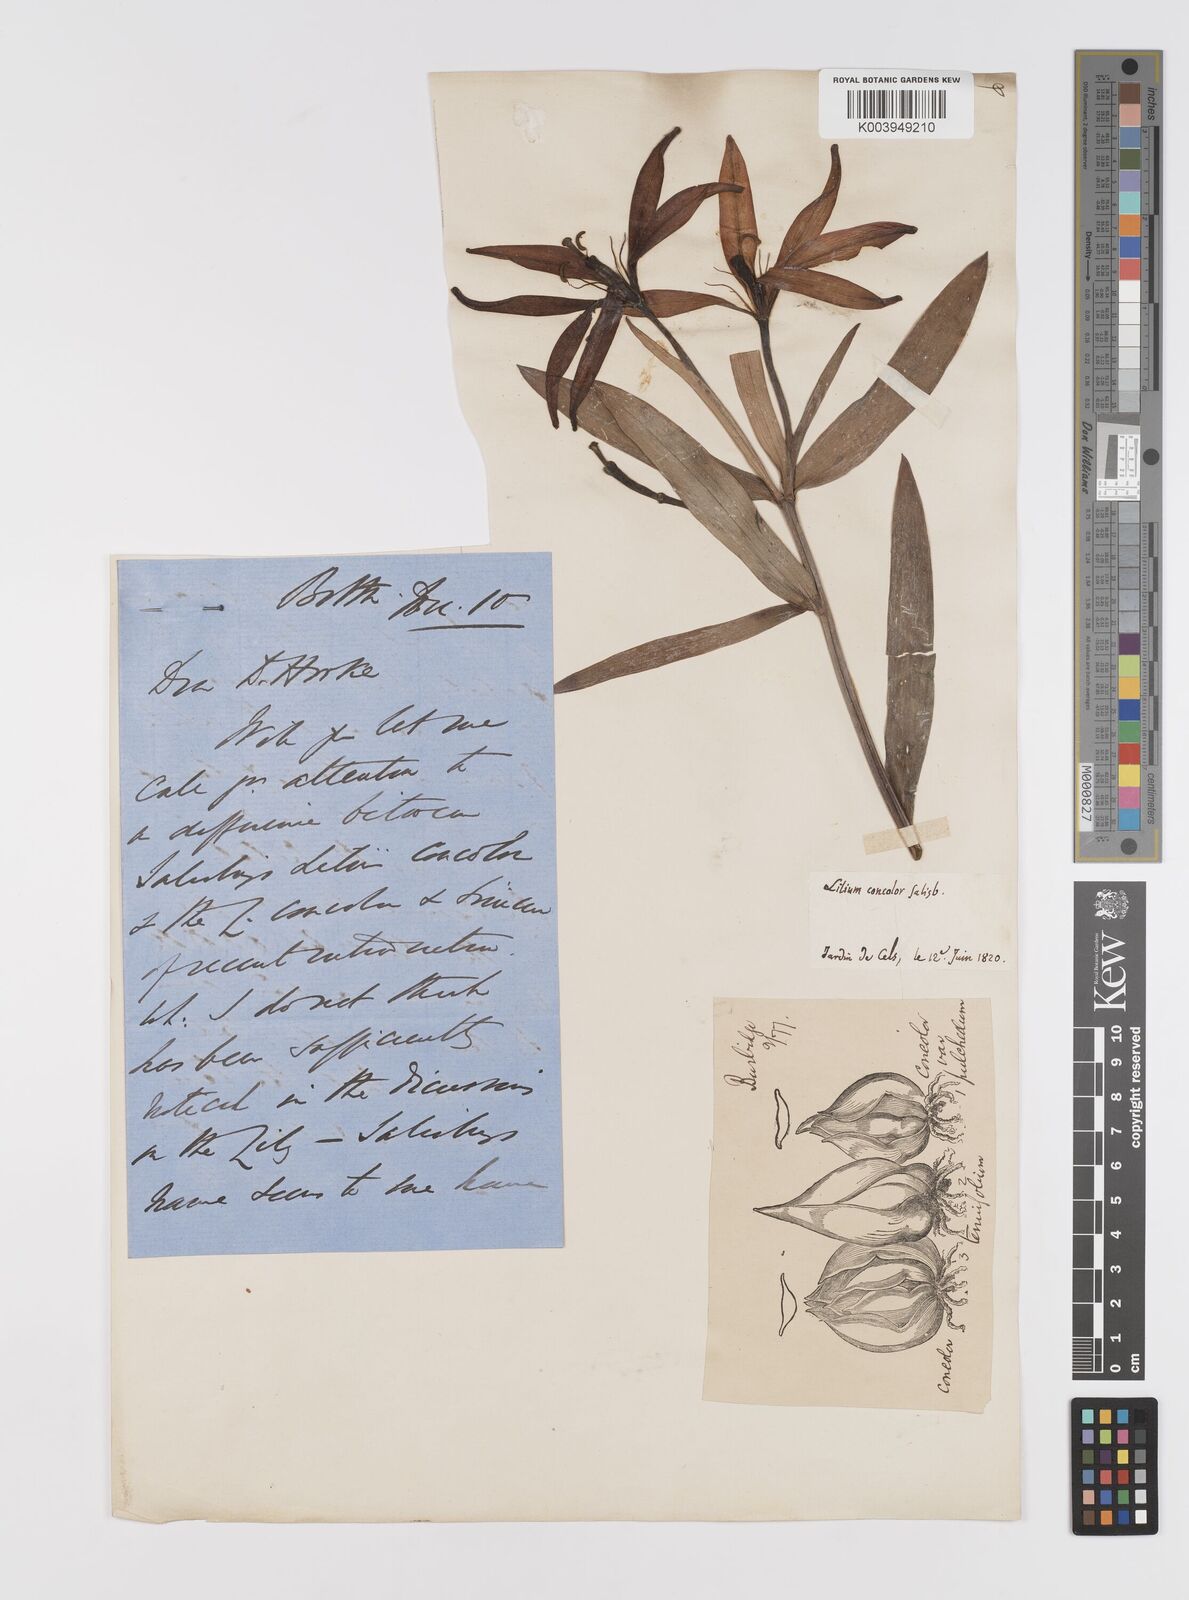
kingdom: Plantae
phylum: Tracheophyta
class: Liliopsida
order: Liliales
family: Liliaceae
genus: Lilium
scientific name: Lilium concolor
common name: Morning-star lily
